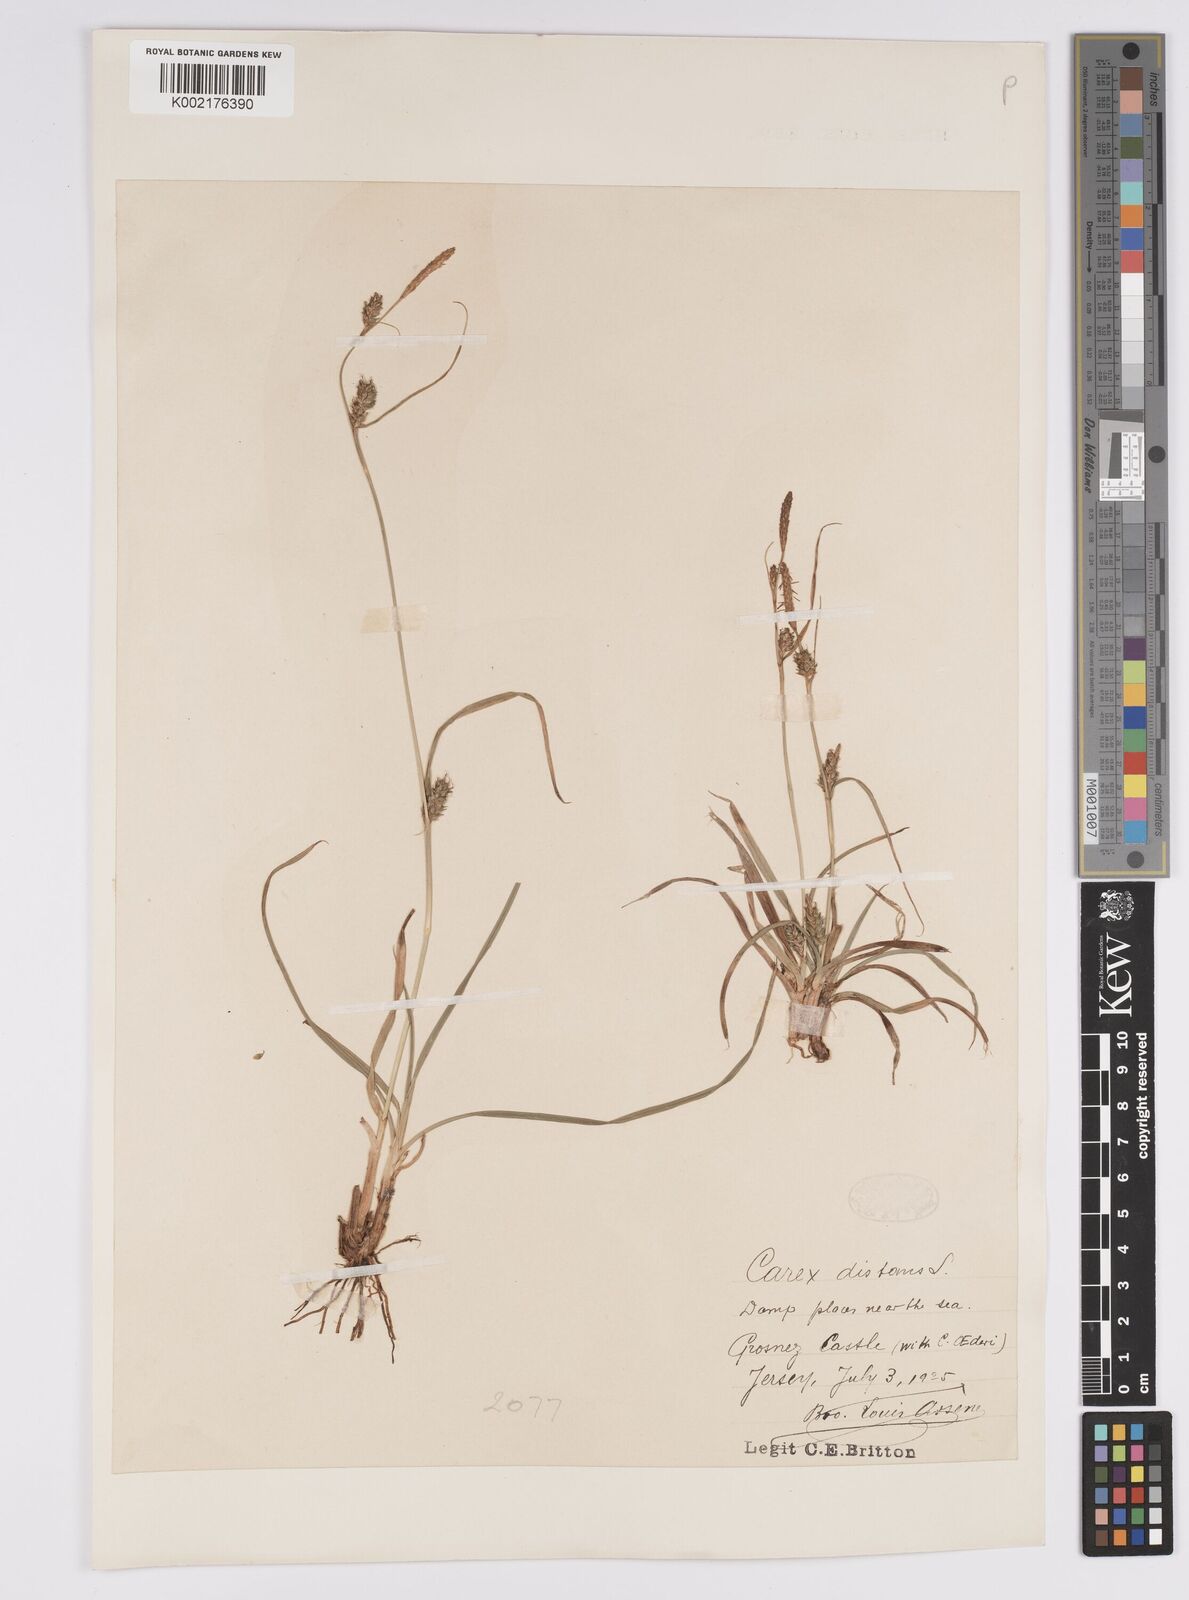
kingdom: Plantae
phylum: Tracheophyta
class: Liliopsida
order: Poales
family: Cyperaceae
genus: Carex
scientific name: Carex distans
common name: Distant sedge
